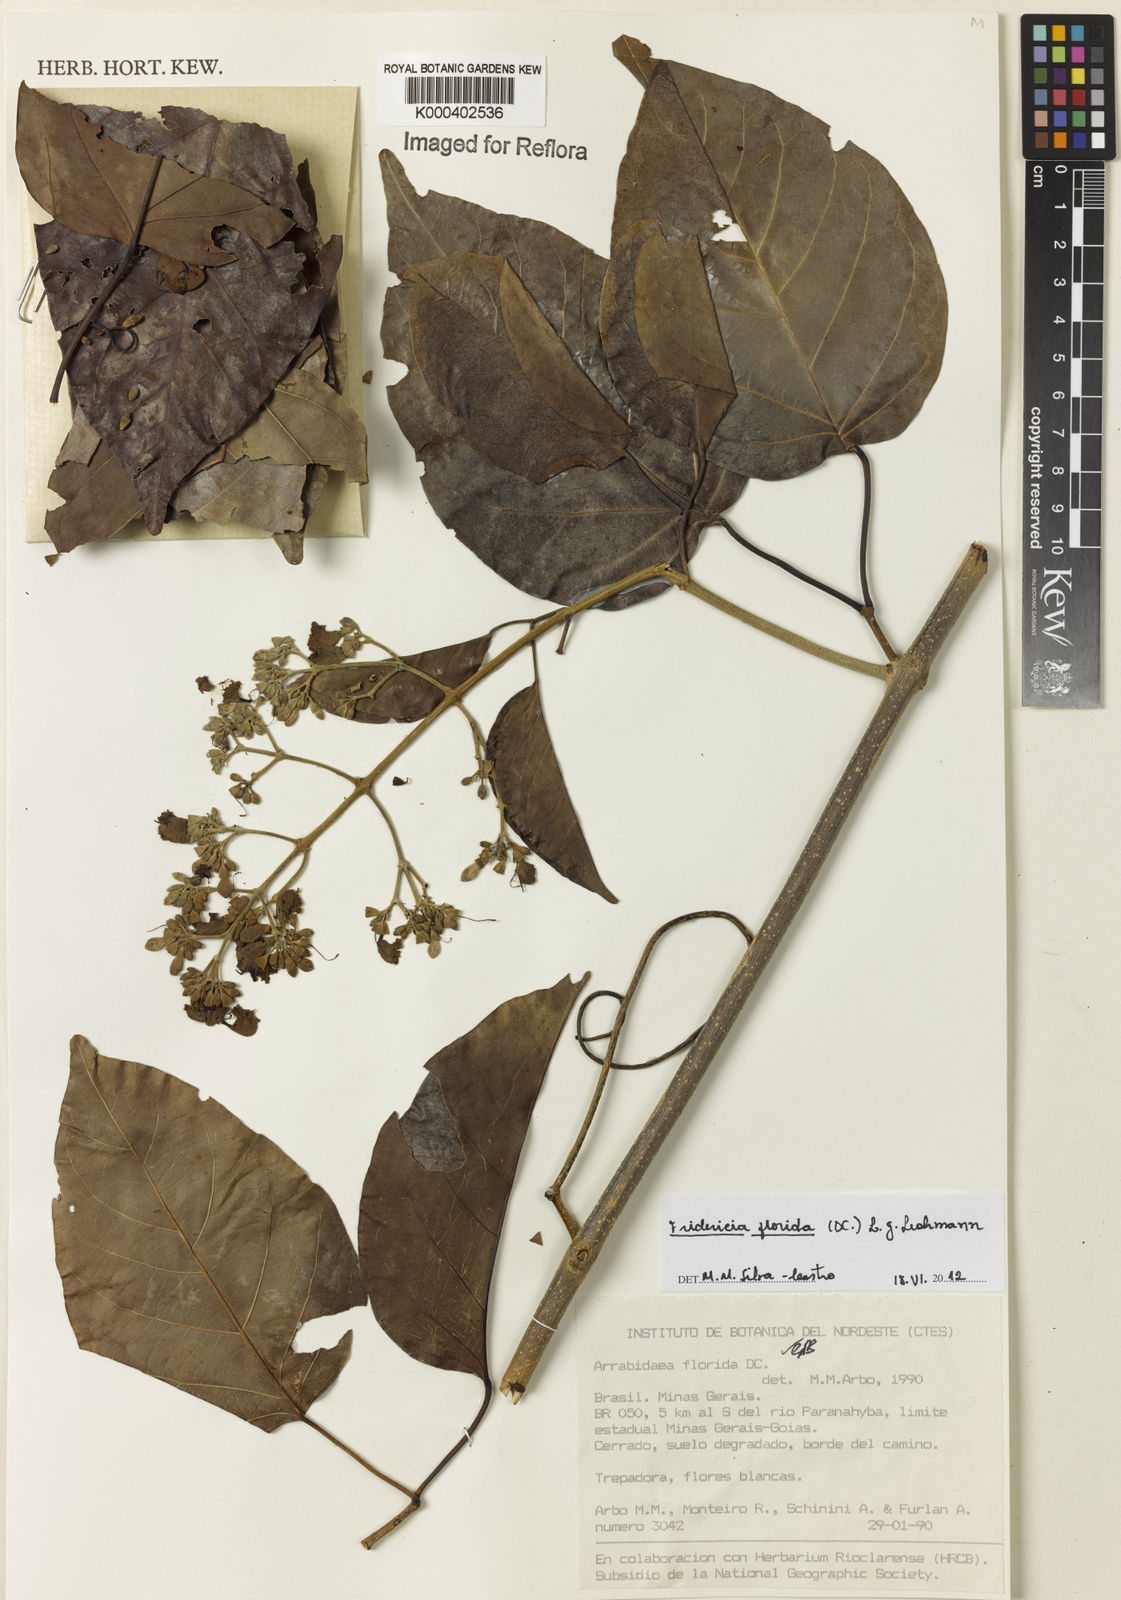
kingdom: Plantae
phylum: Tracheophyta
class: Magnoliopsida
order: Lamiales
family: Bignoniaceae
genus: Fridericia
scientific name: Fridericia florida
